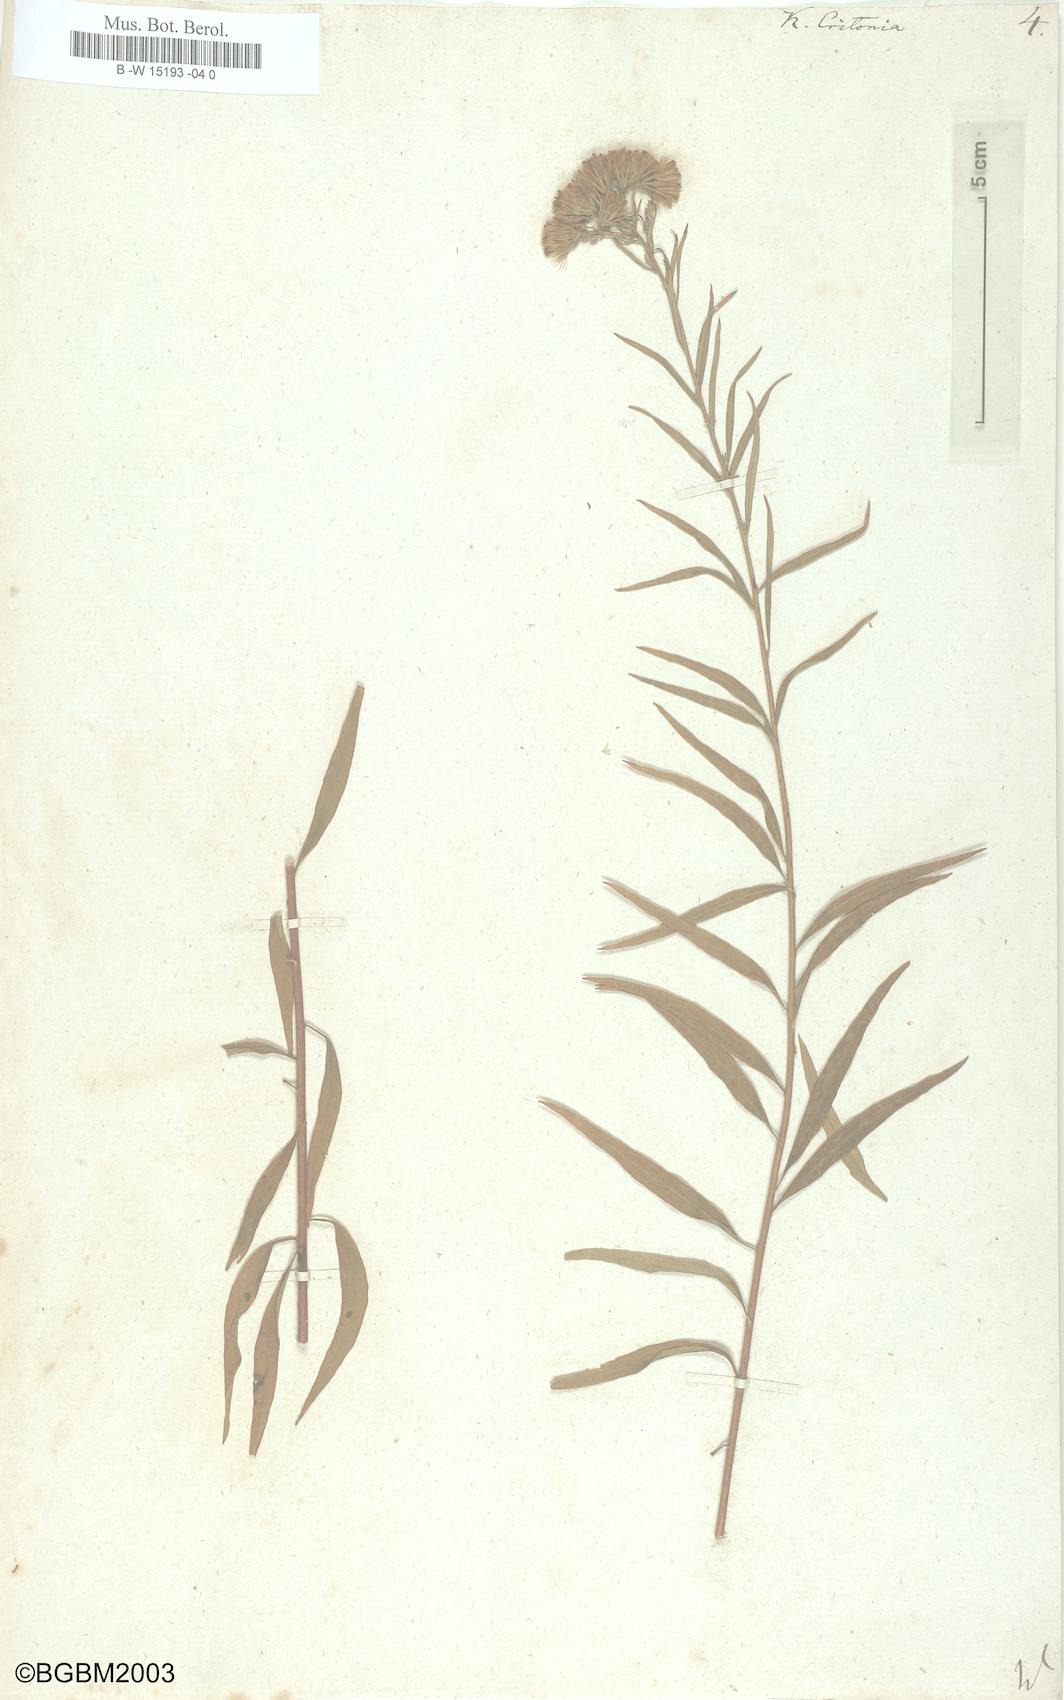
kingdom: Plantae
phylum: Tracheophyta
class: Magnoliopsida
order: Asterales
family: Asteraceae
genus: Brickellia
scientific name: Brickellia eupatorioides
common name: False boneset
